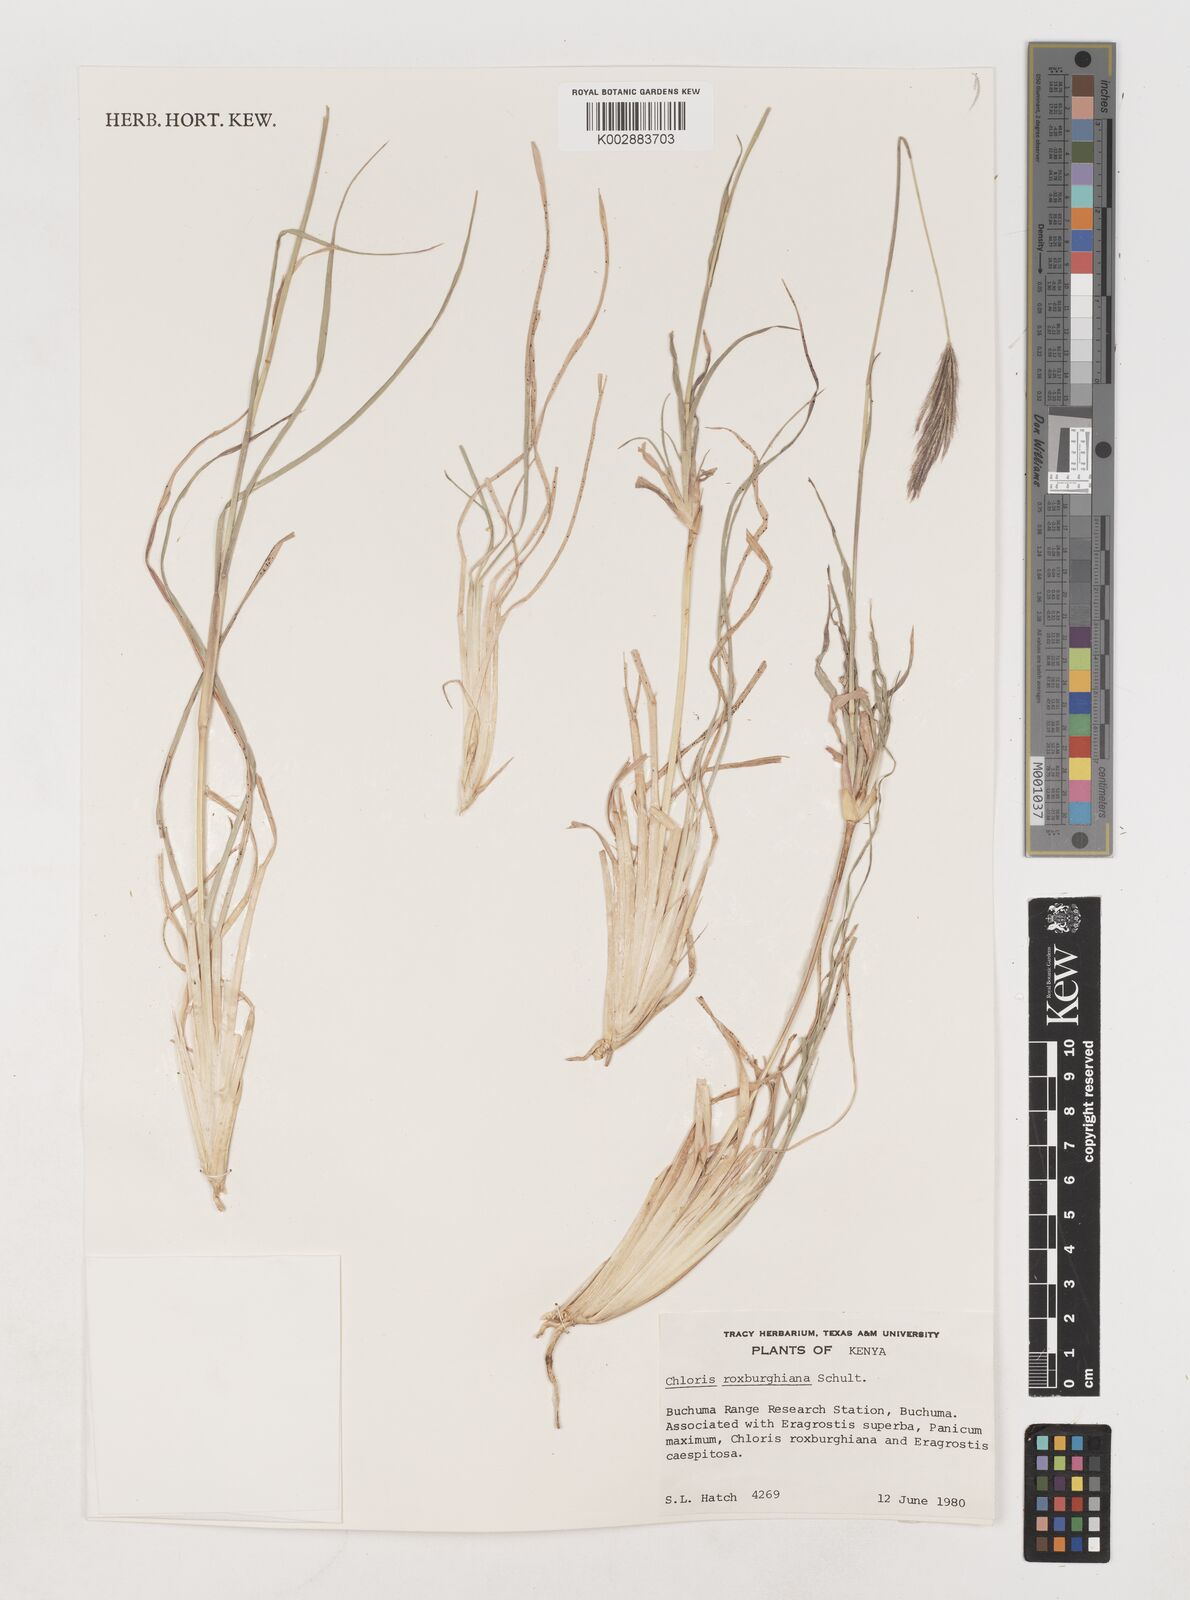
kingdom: Plantae
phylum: Tracheophyta
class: Liliopsida
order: Poales
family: Poaceae
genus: Tetrapogon
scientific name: Tetrapogon roxburghiana
